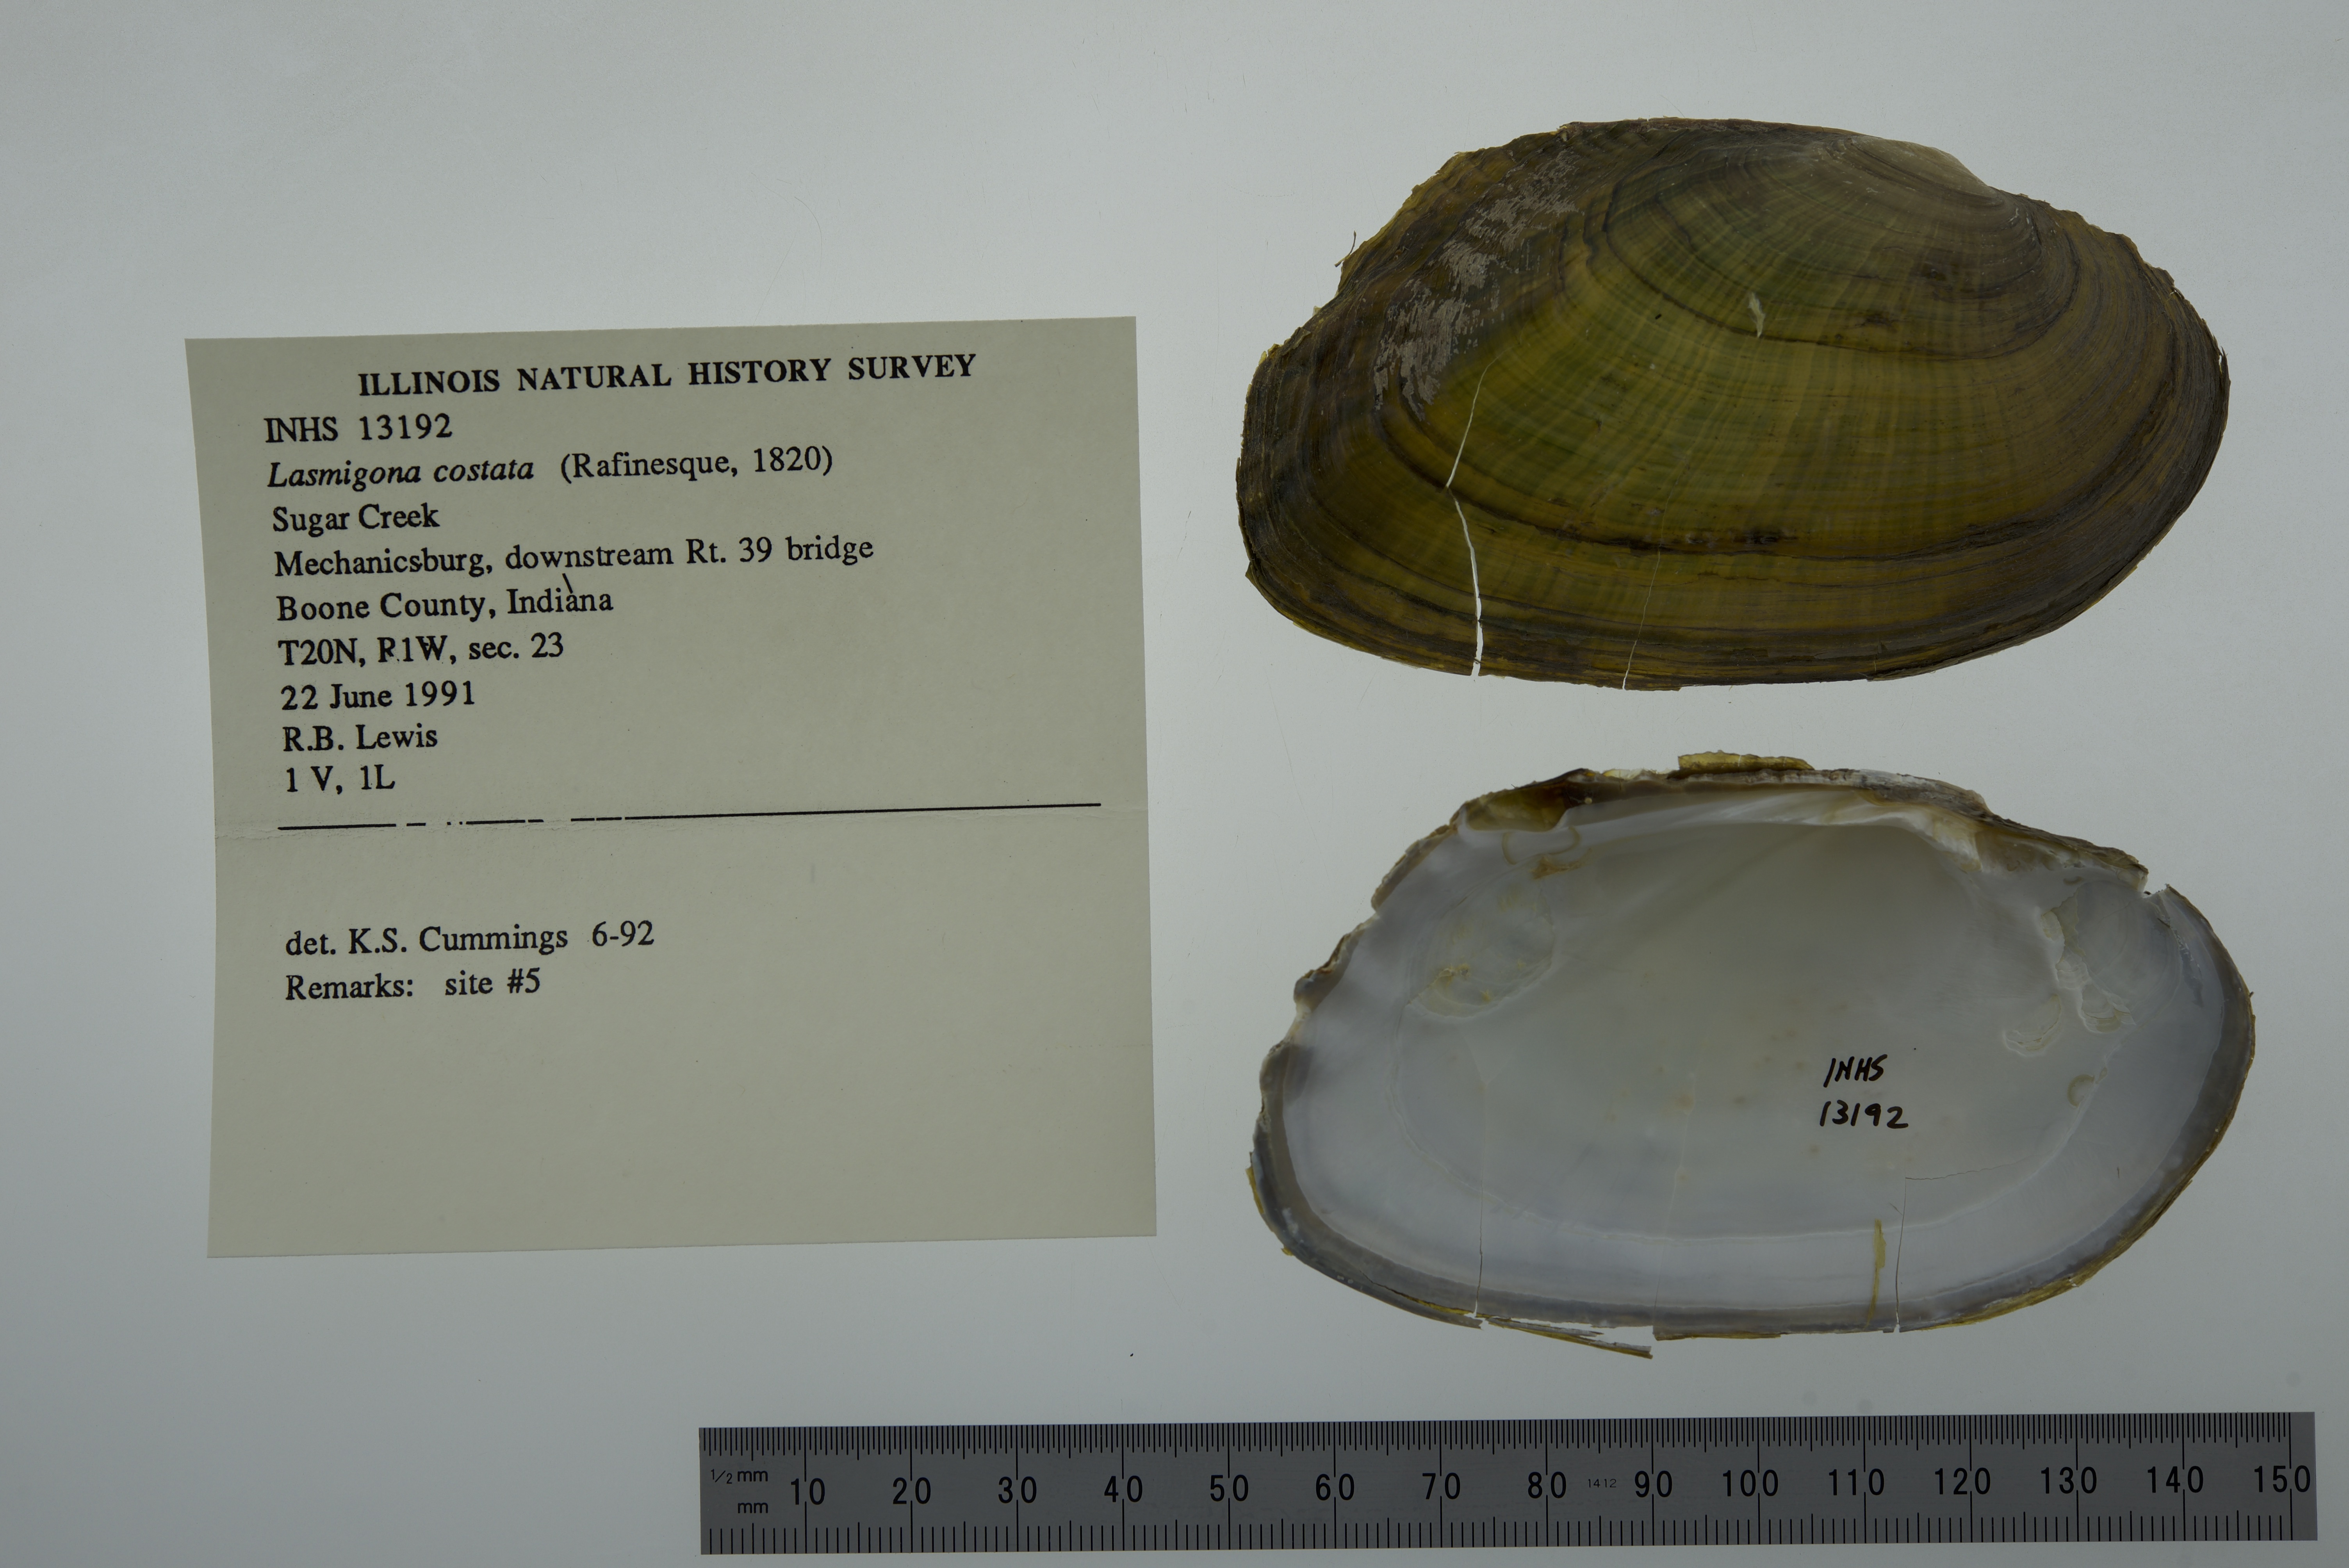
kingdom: Animalia
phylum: Mollusca
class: Bivalvia
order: Unionida
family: Unionidae
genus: Lasmigona
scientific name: Lasmigona costata
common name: Flutedshell
